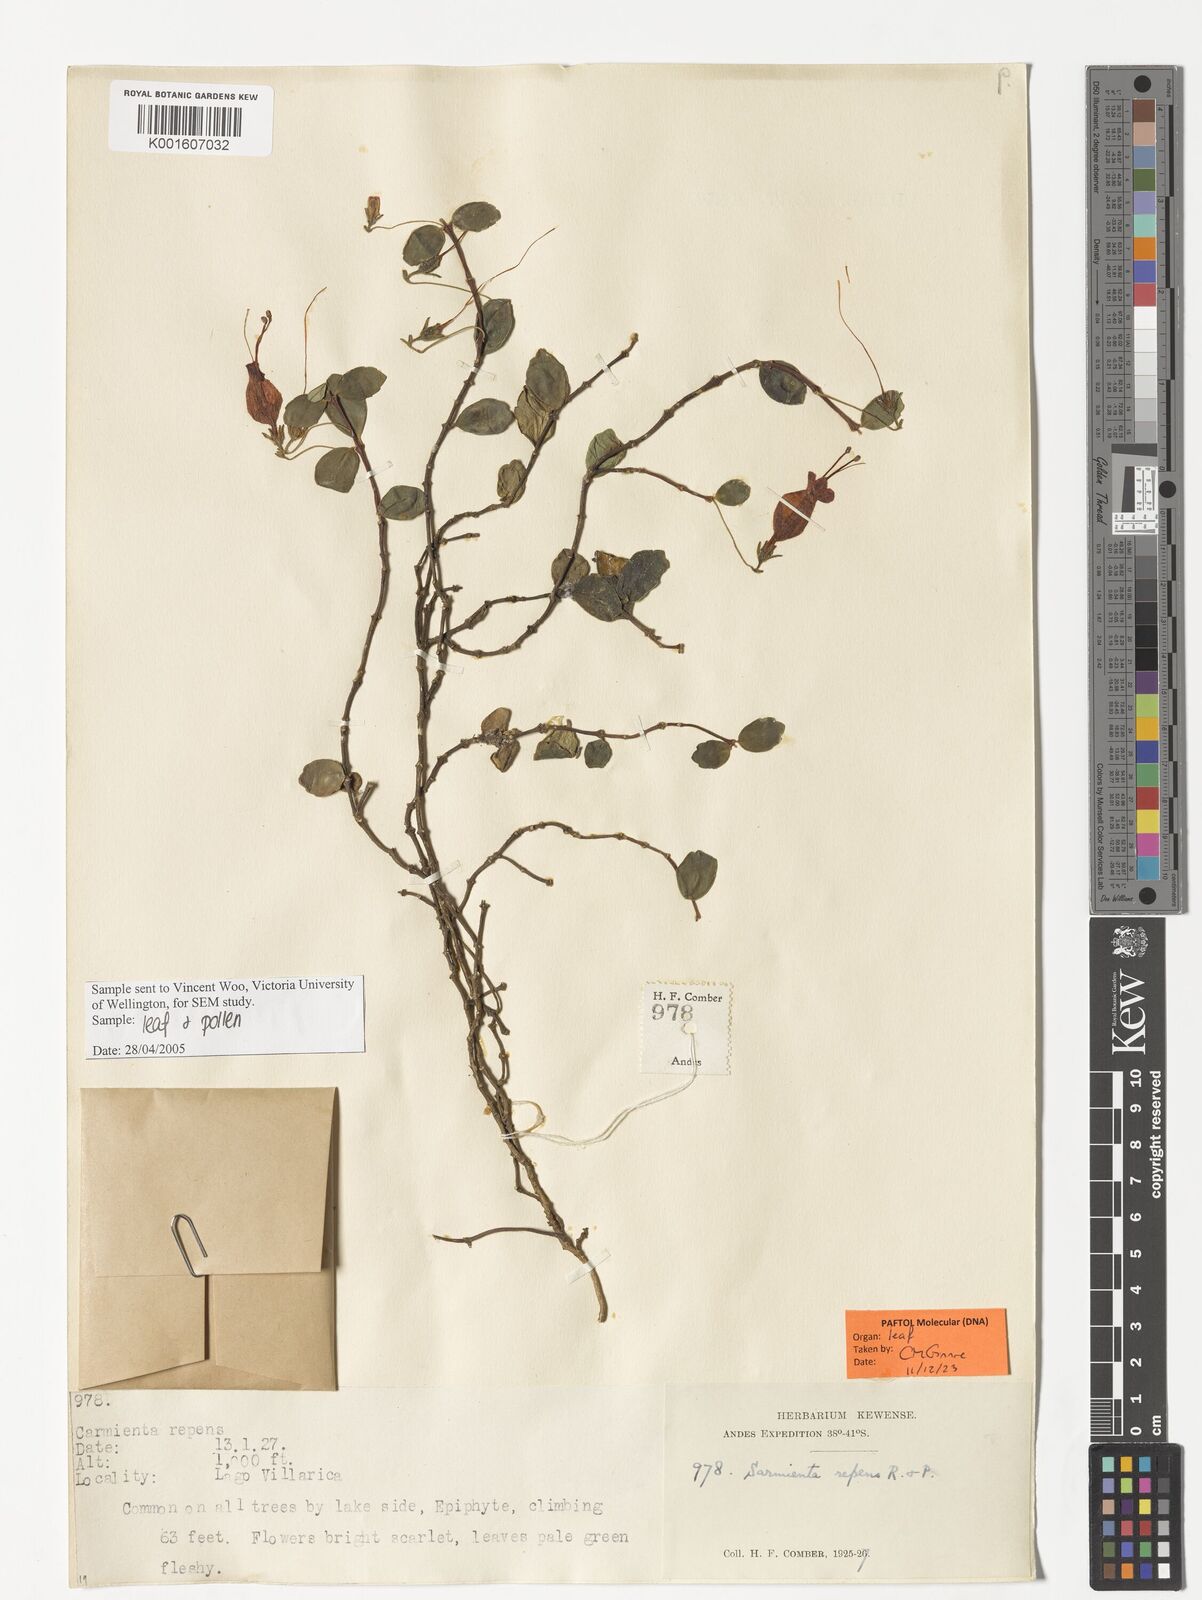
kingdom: Plantae
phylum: Tracheophyta
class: Magnoliopsida
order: Lamiales
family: Gesneriaceae
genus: Sarmienta
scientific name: Sarmienta scandens
